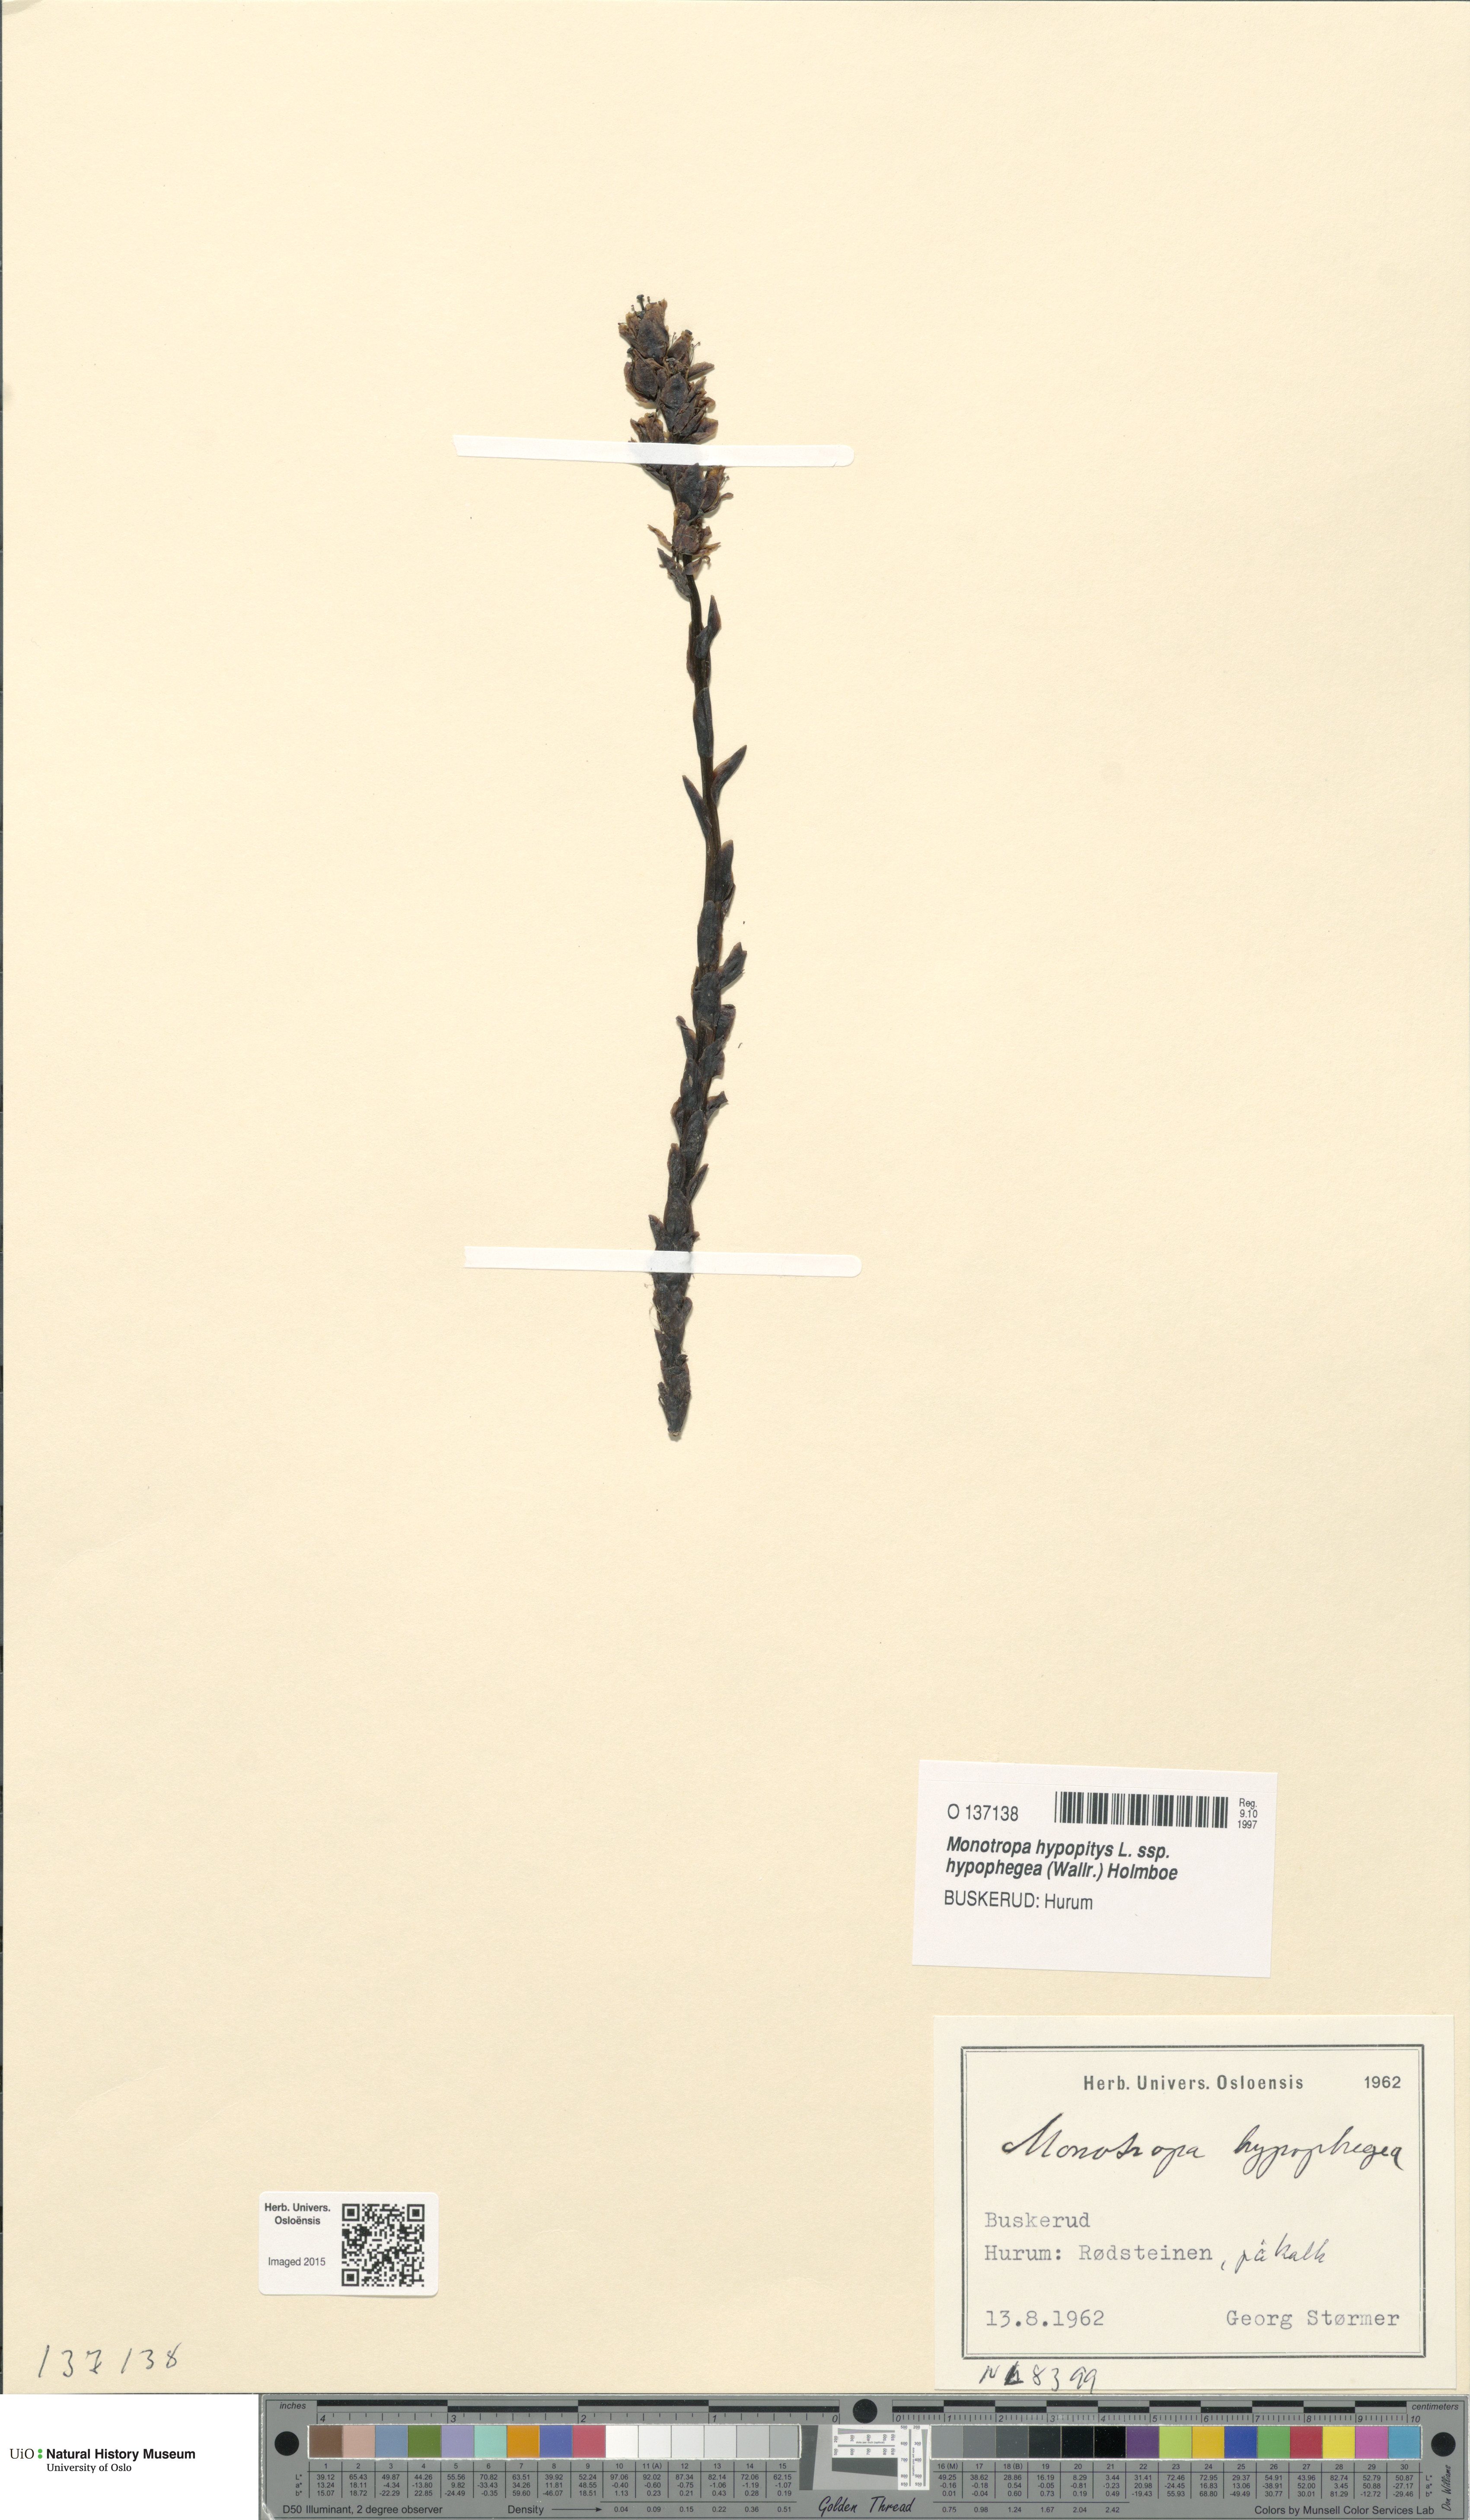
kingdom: Plantae
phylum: Tracheophyta
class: Magnoliopsida
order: Ericales
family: Ericaceae
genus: Hypopitys
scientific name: Hypopitys hypophegea
